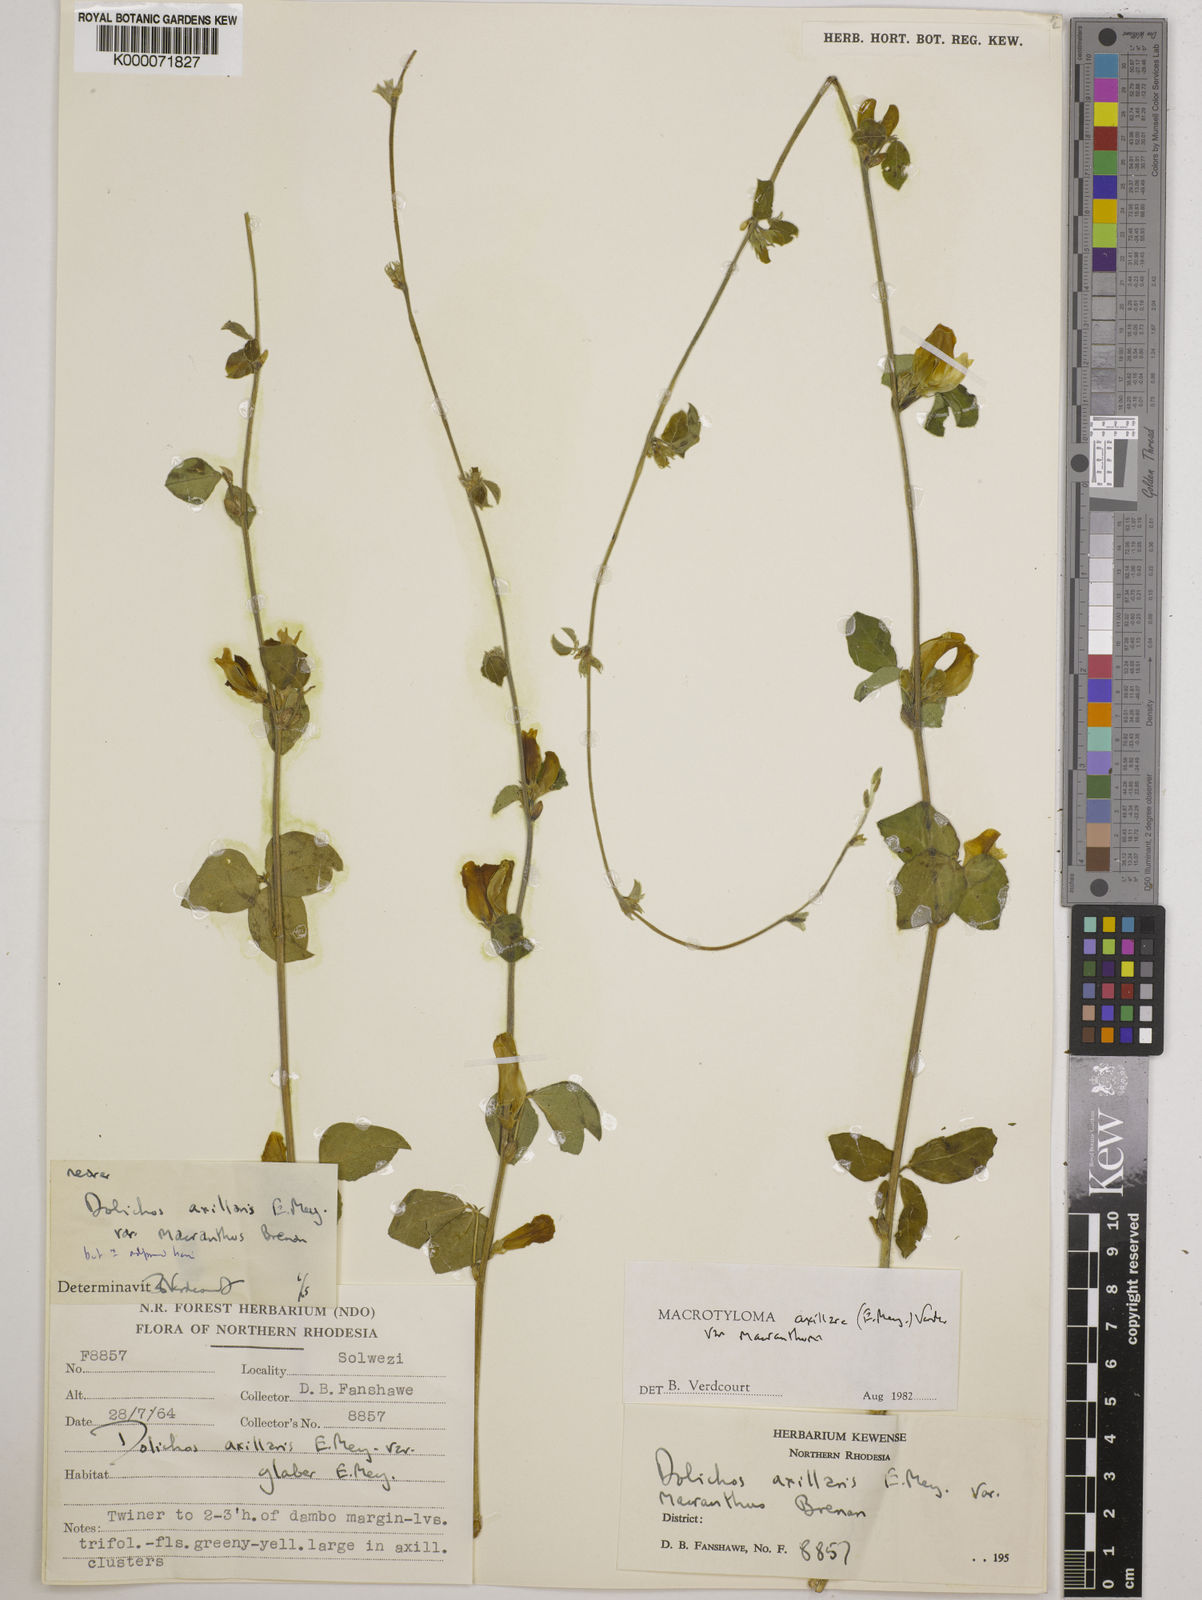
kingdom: Plantae
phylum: Tracheophyta
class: Magnoliopsida
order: Fabales
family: Fabaceae
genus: Macrotyloma
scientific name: Macrotyloma axillare
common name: Perennial horsegram
